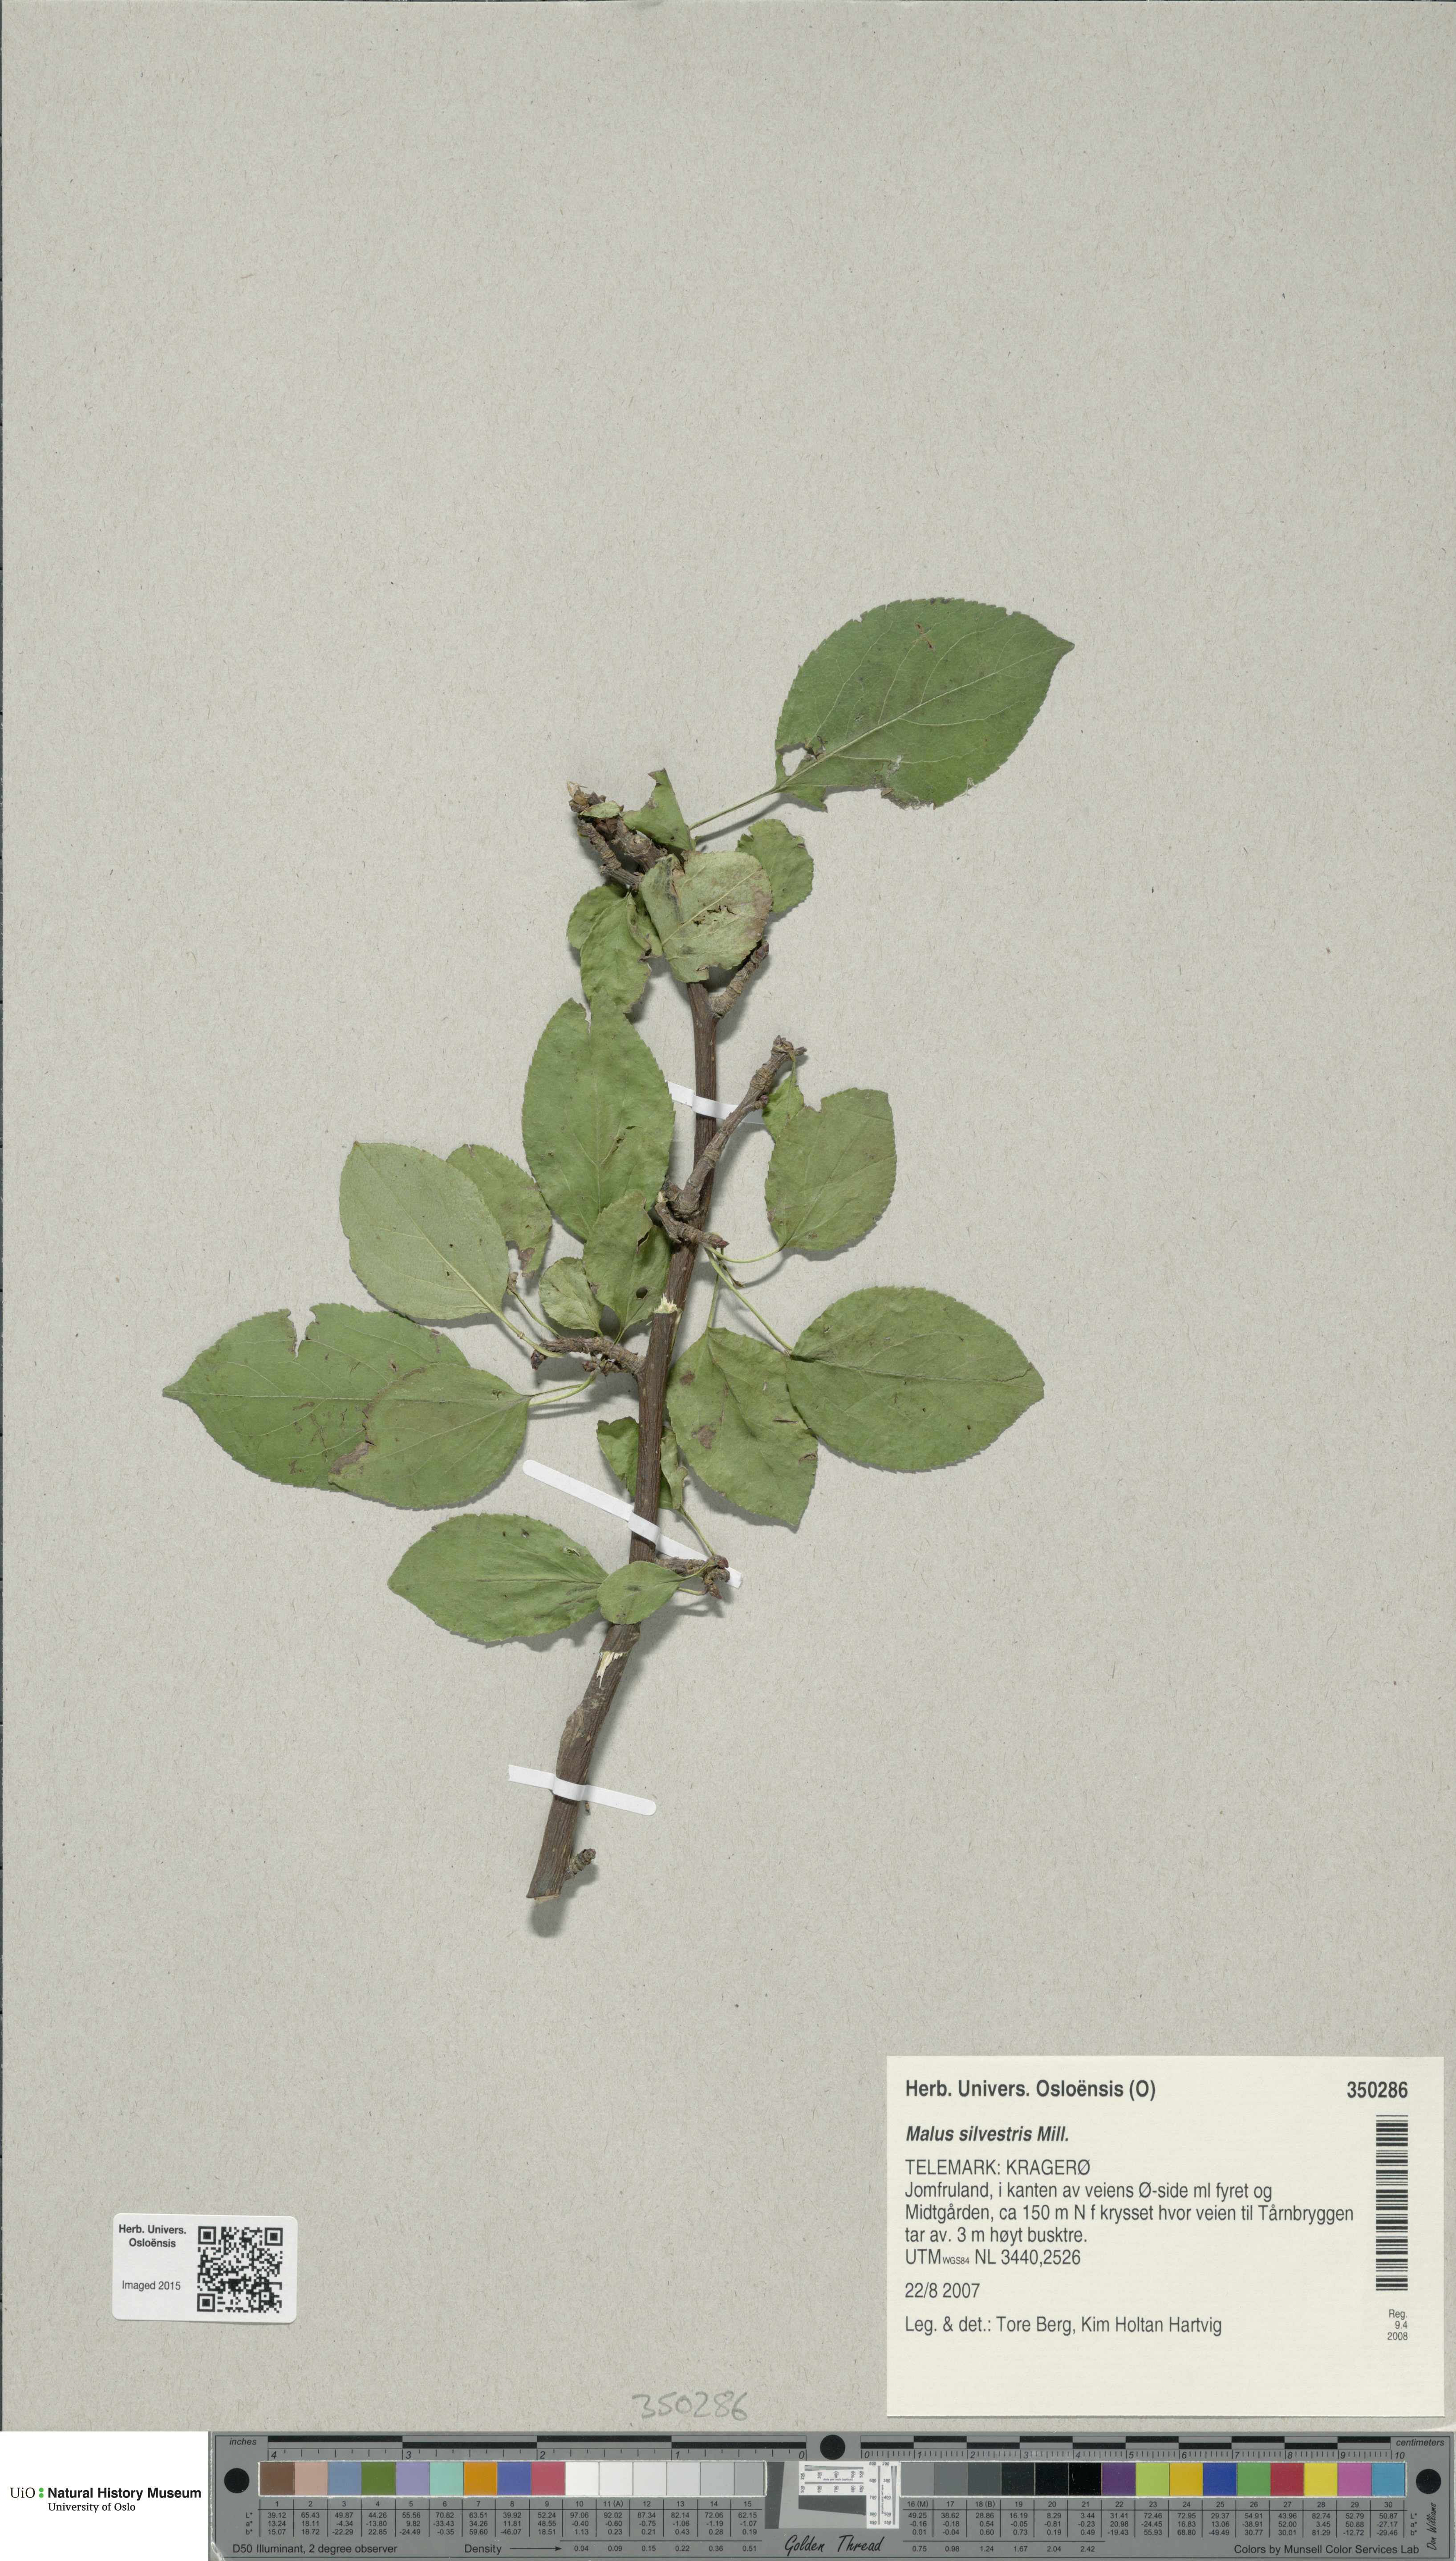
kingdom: Plantae
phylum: Tracheophyta
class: Magnoliopsida
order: Rosales
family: Rosaceae
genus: Malus
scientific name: Malus sylvestris
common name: Crab apple
